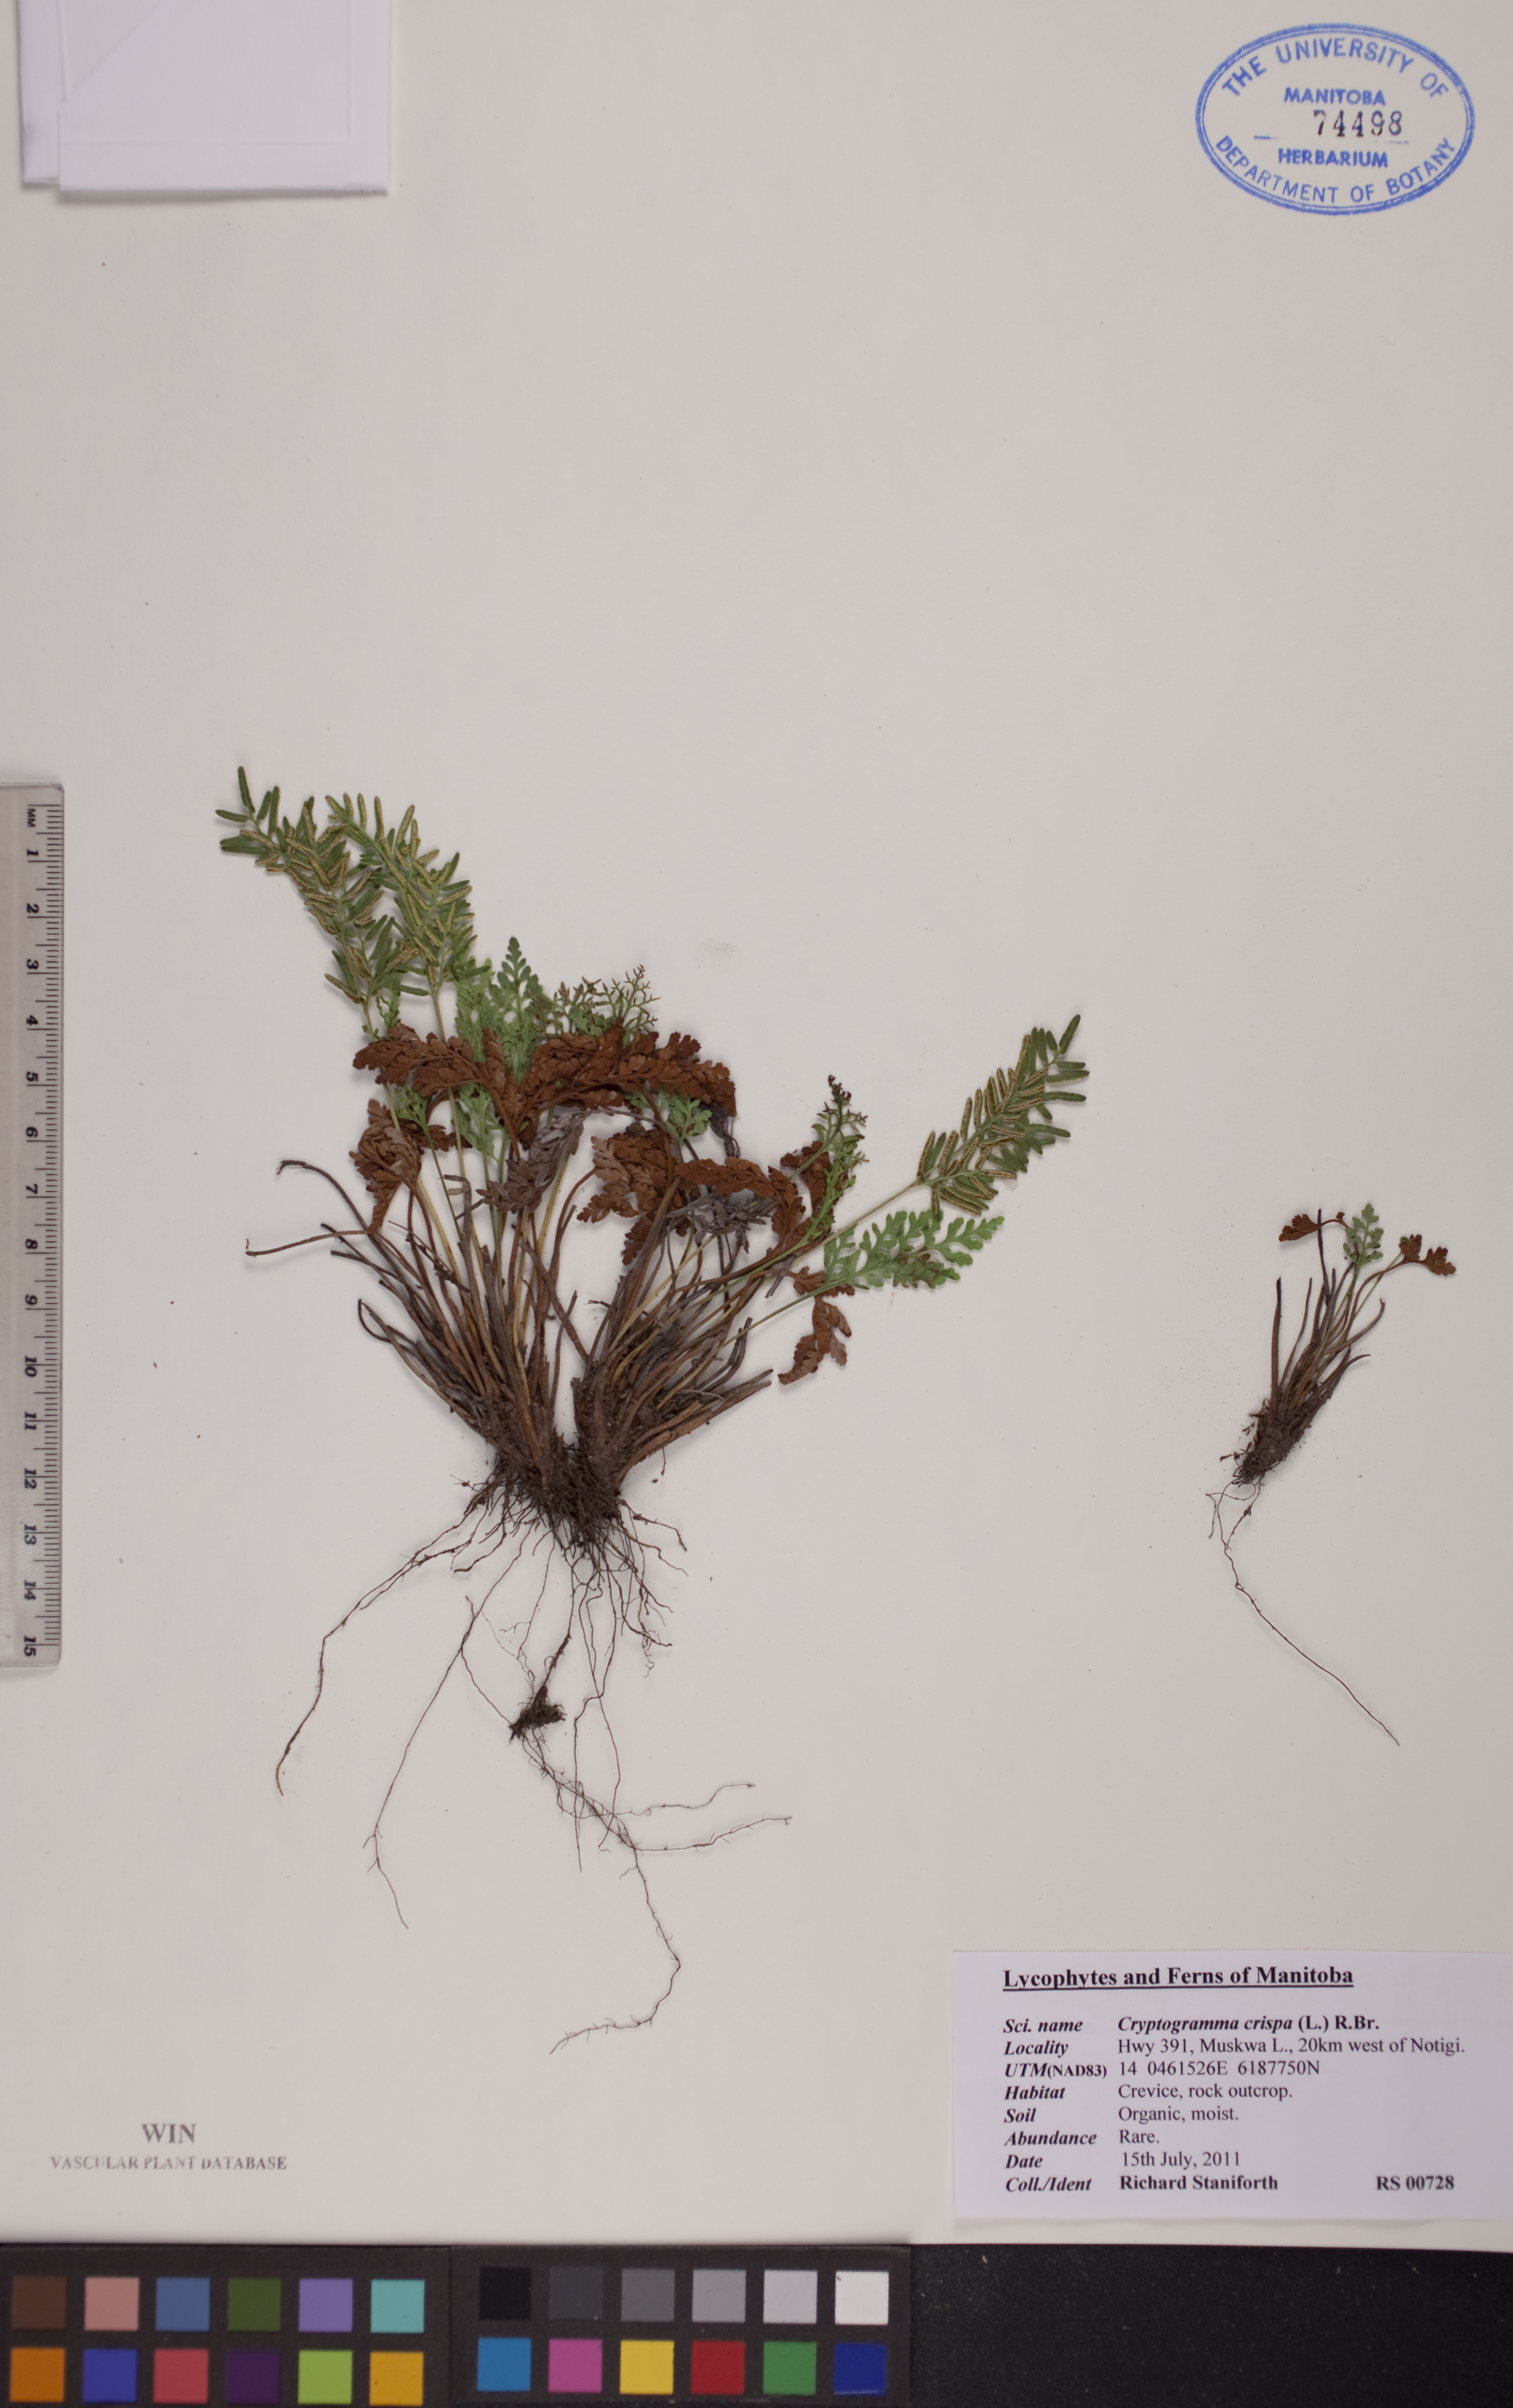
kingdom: Plantae
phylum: Tracheophyta
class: Polypodiopsida
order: Polypodiales
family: Pteridaceae
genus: Cryptogramma
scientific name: Cryptogramma acrostichoides
